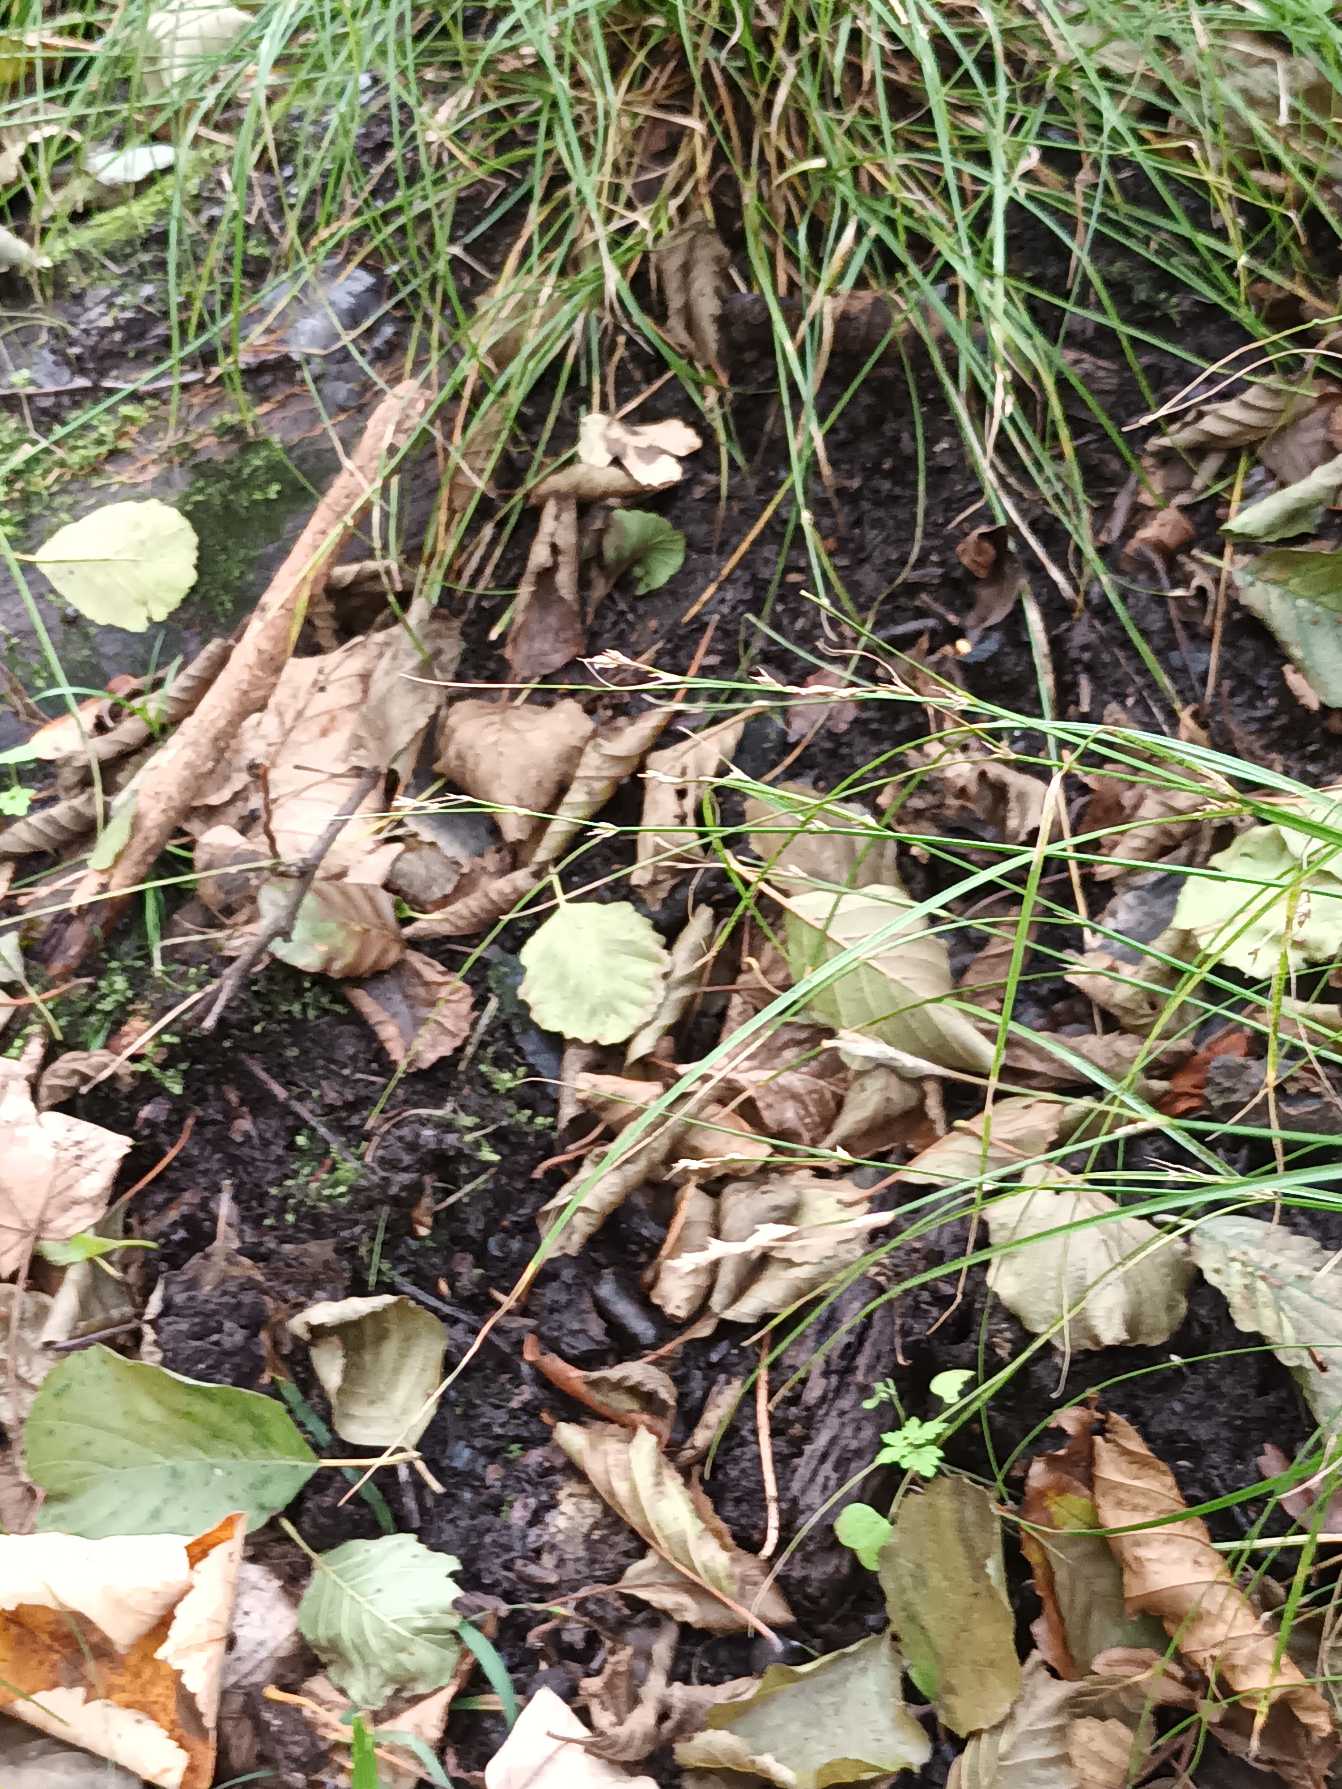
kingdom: Plantae
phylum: Tracheophyta
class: Liliopsida
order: Poales
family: Cyperaceae
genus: Carex
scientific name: Carex remota
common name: Akselblomstret star
